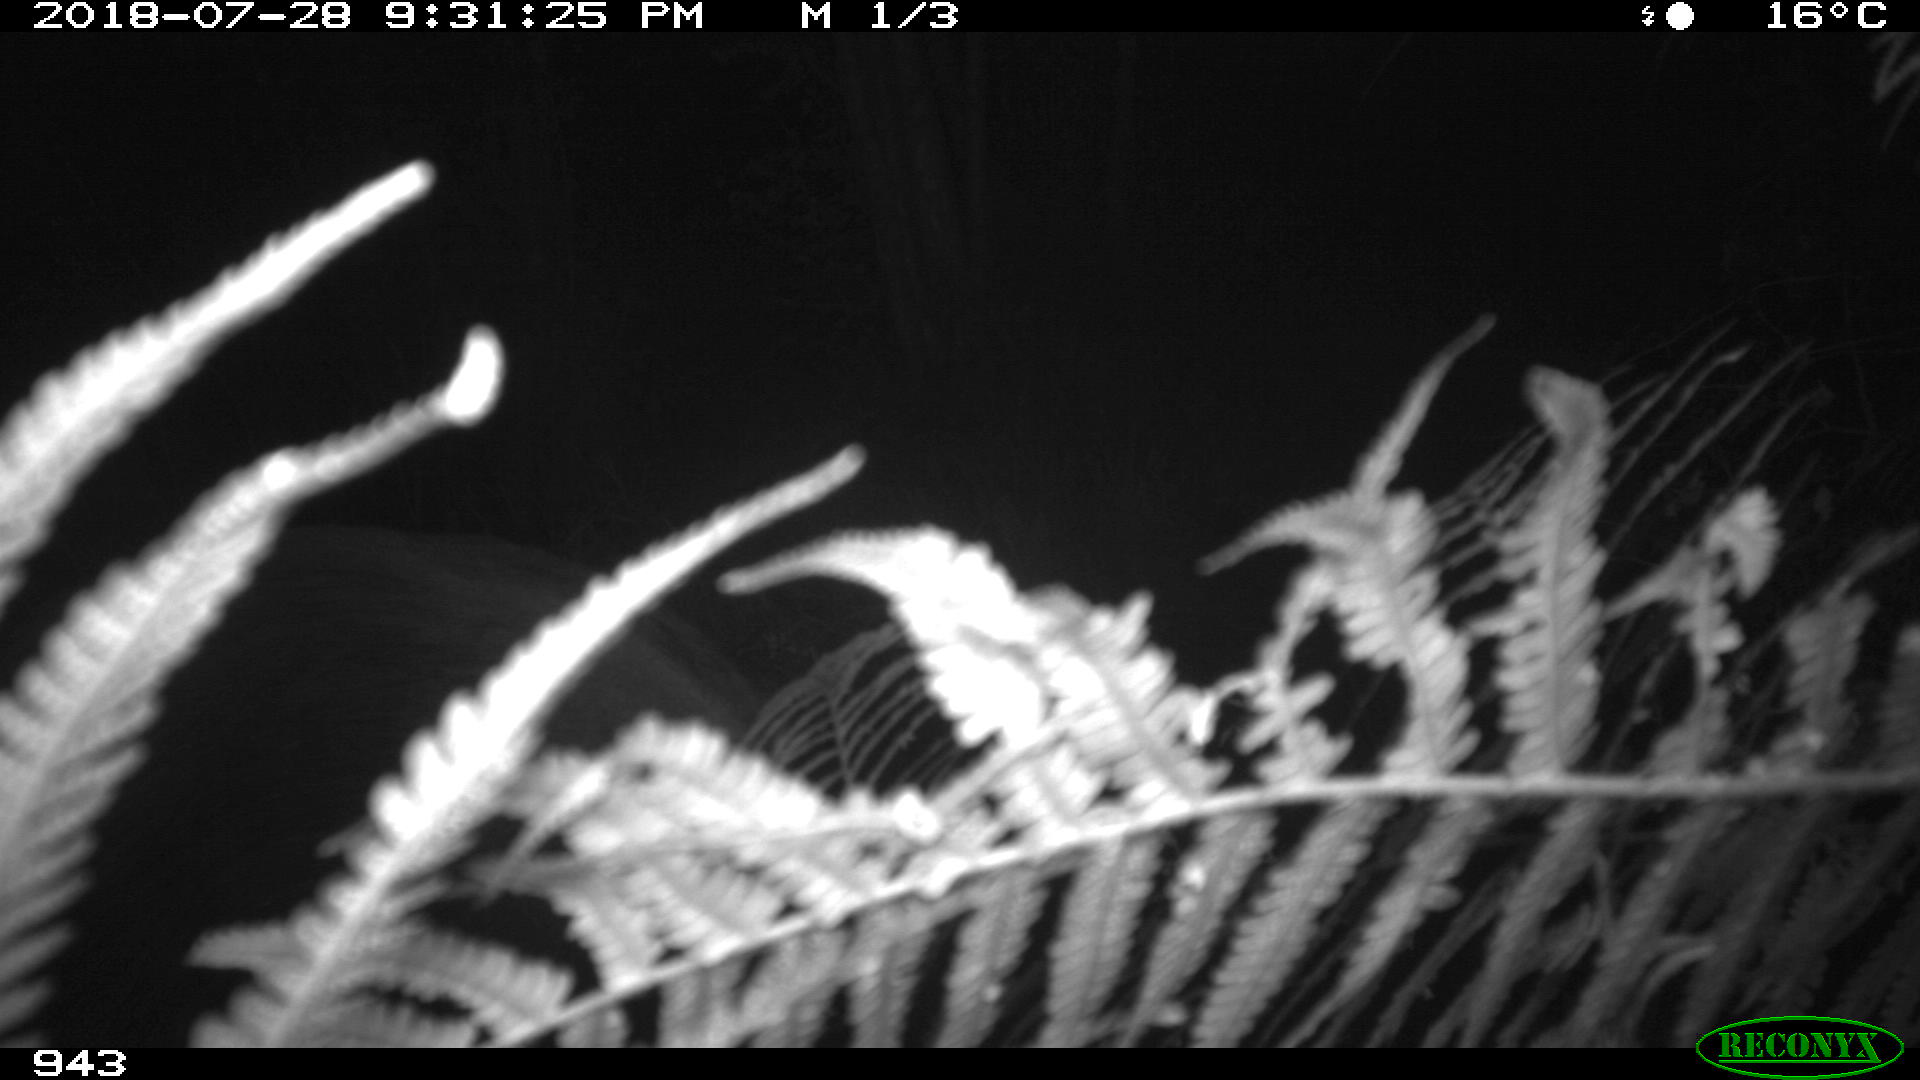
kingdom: Animalia
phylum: Chordata
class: Mammalia
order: Artiodactyla
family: Suidae
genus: Sus
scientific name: Sus scrofa
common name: Wild boar
